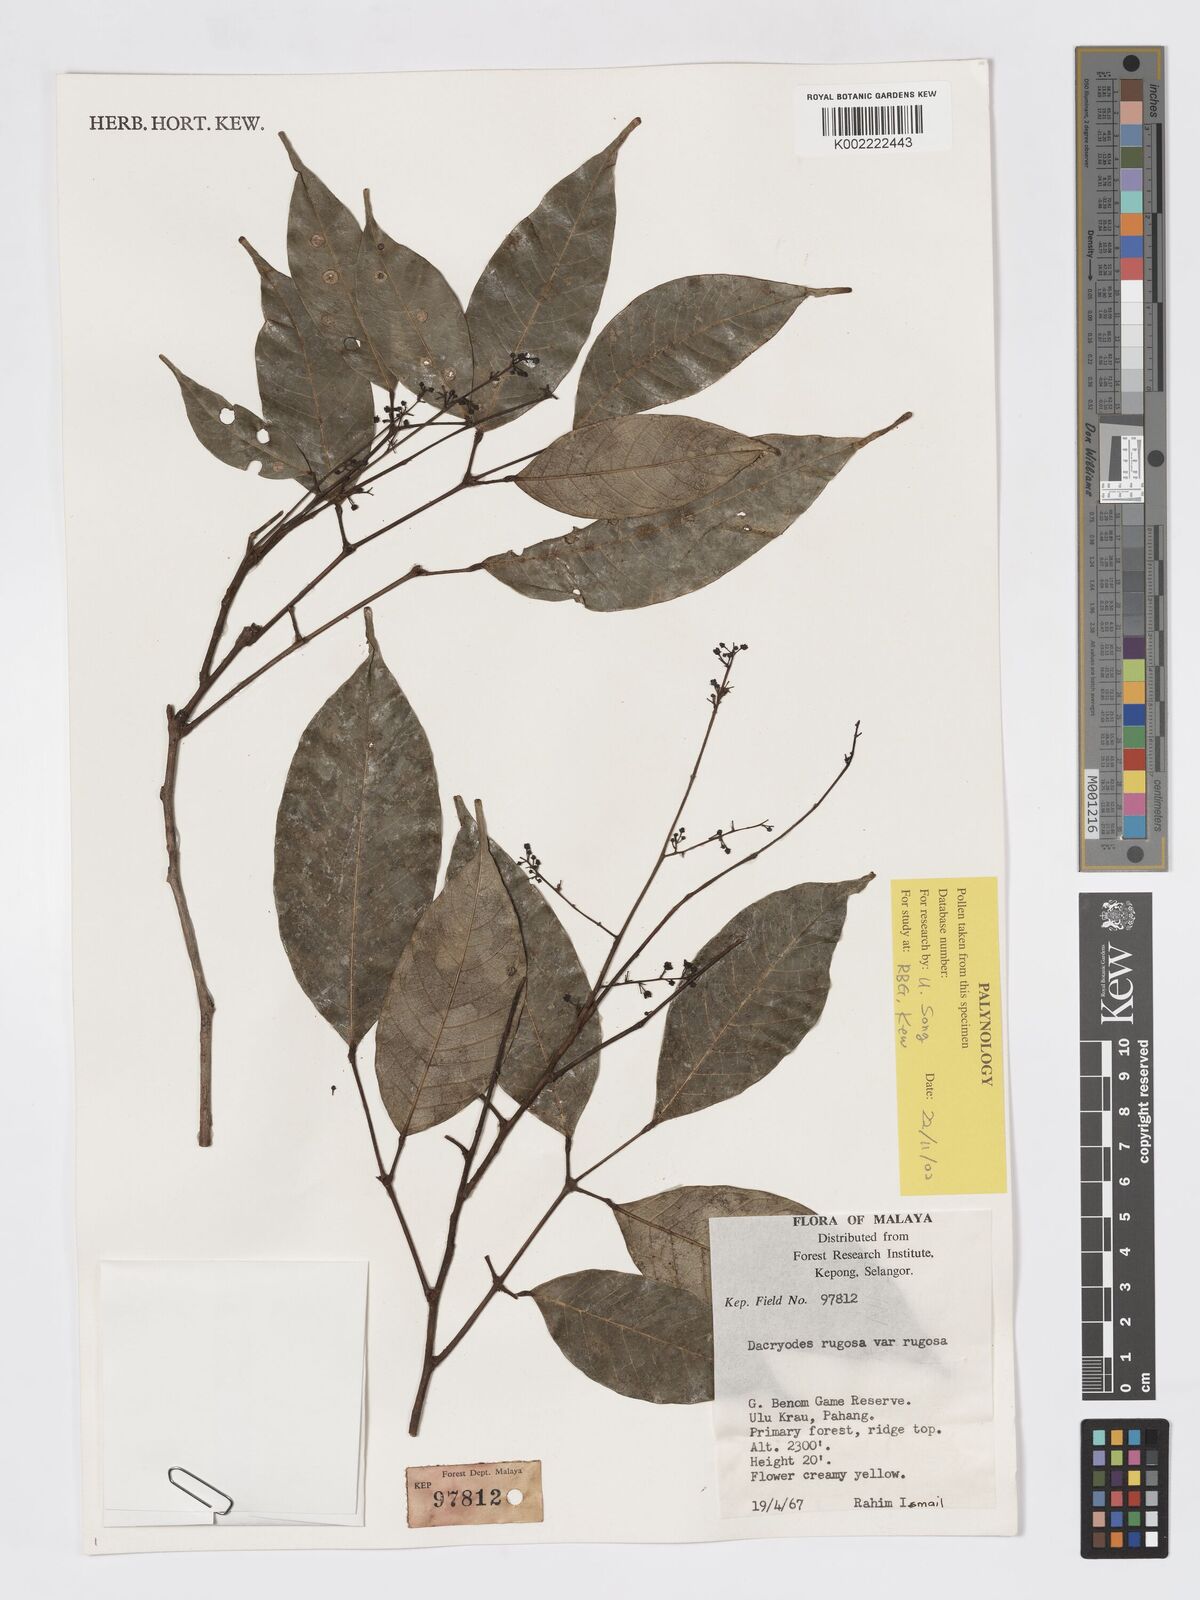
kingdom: Plantae
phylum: Tracheophyta
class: Magnoliopsida
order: Sapindales
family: Burseraceae
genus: Dacryodes
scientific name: Dacryodes rugosa
